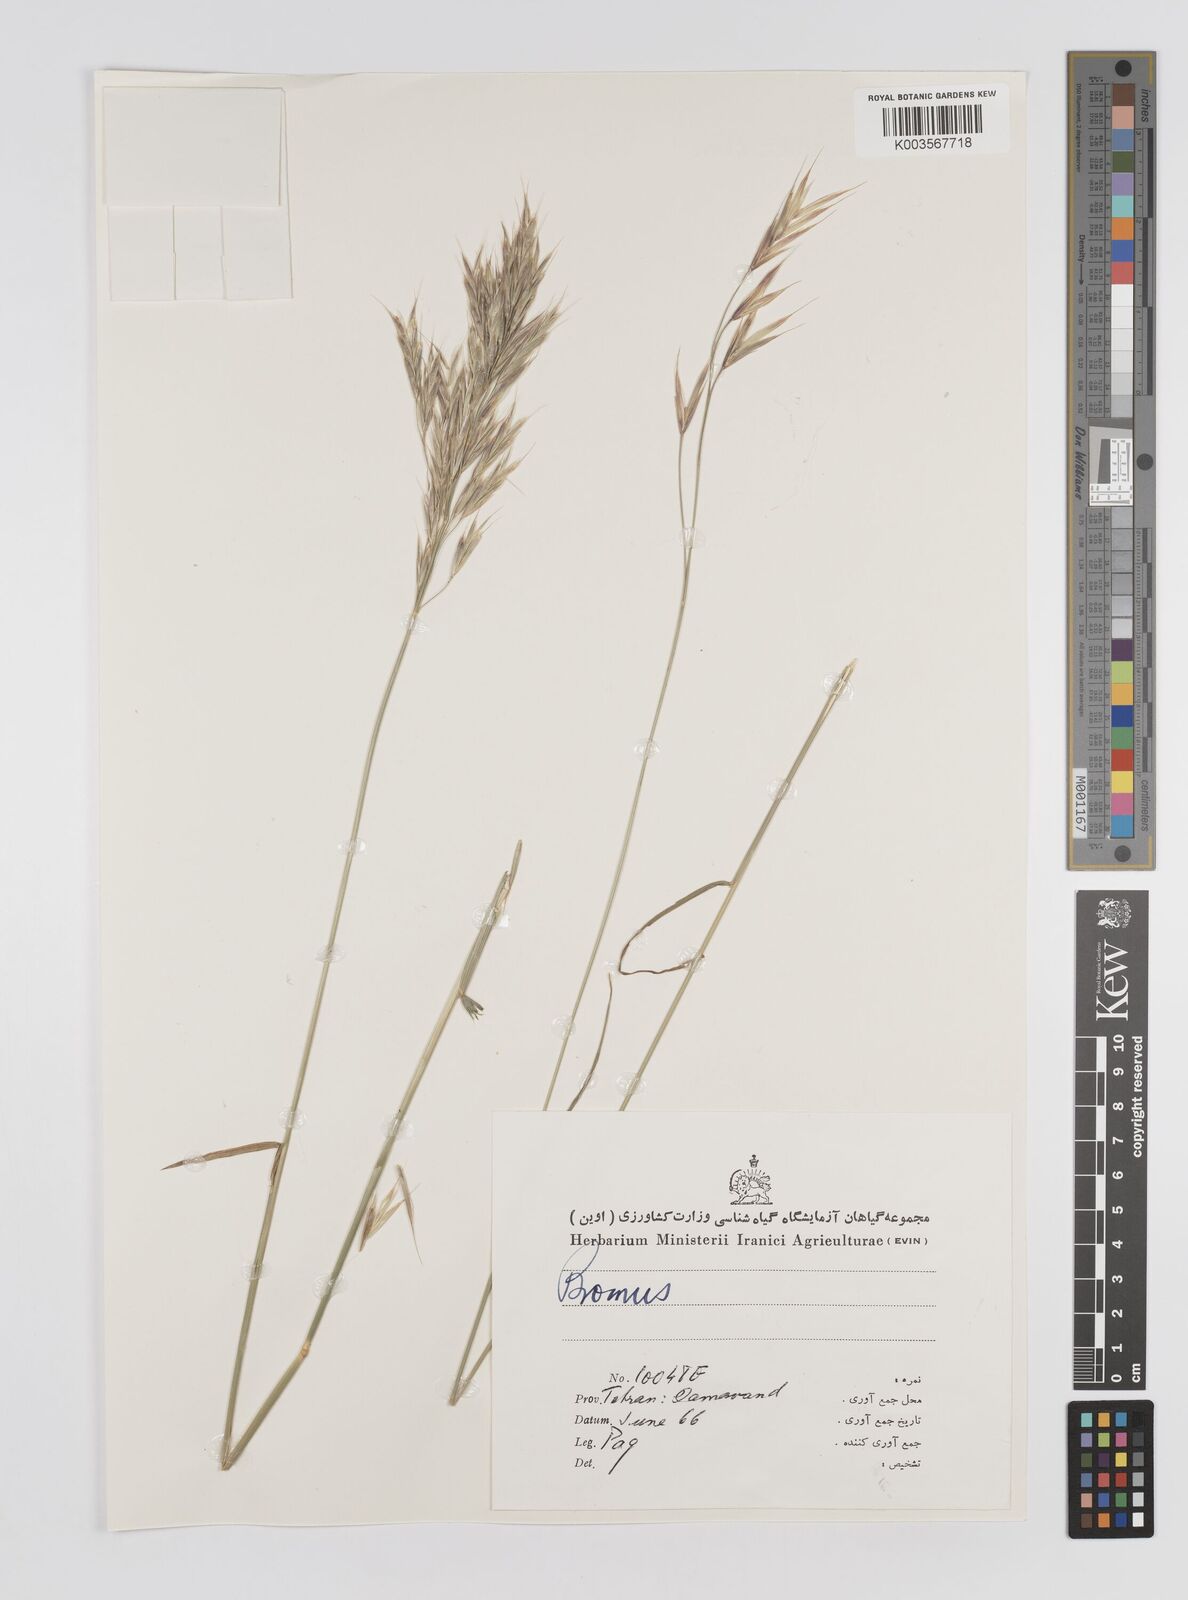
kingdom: Plantae
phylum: Tracheophyta
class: Liliopsida
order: Poales
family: Poaceae
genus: Bromus
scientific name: Bromus
